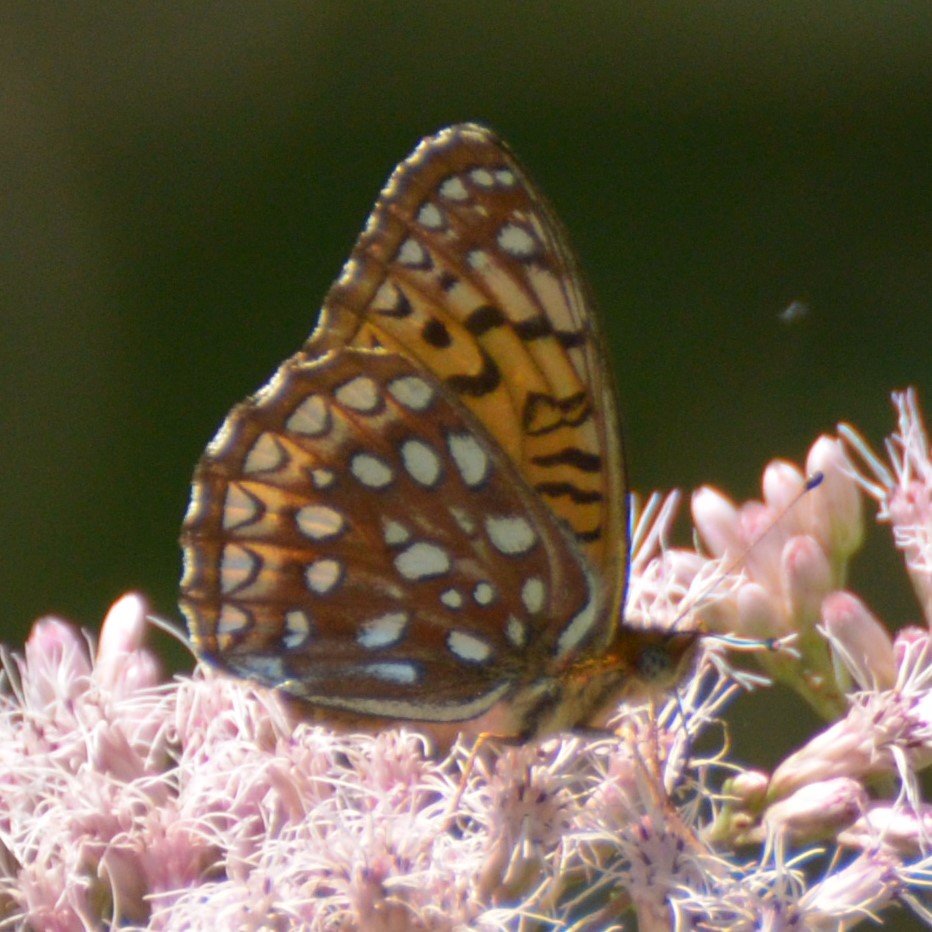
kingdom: Animalia
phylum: Arthropoda
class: Insecta
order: Lepidoptera
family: Nymphalidae
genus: Speyeria
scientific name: Speyeria atlantis
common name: Atlantis Fritillary
